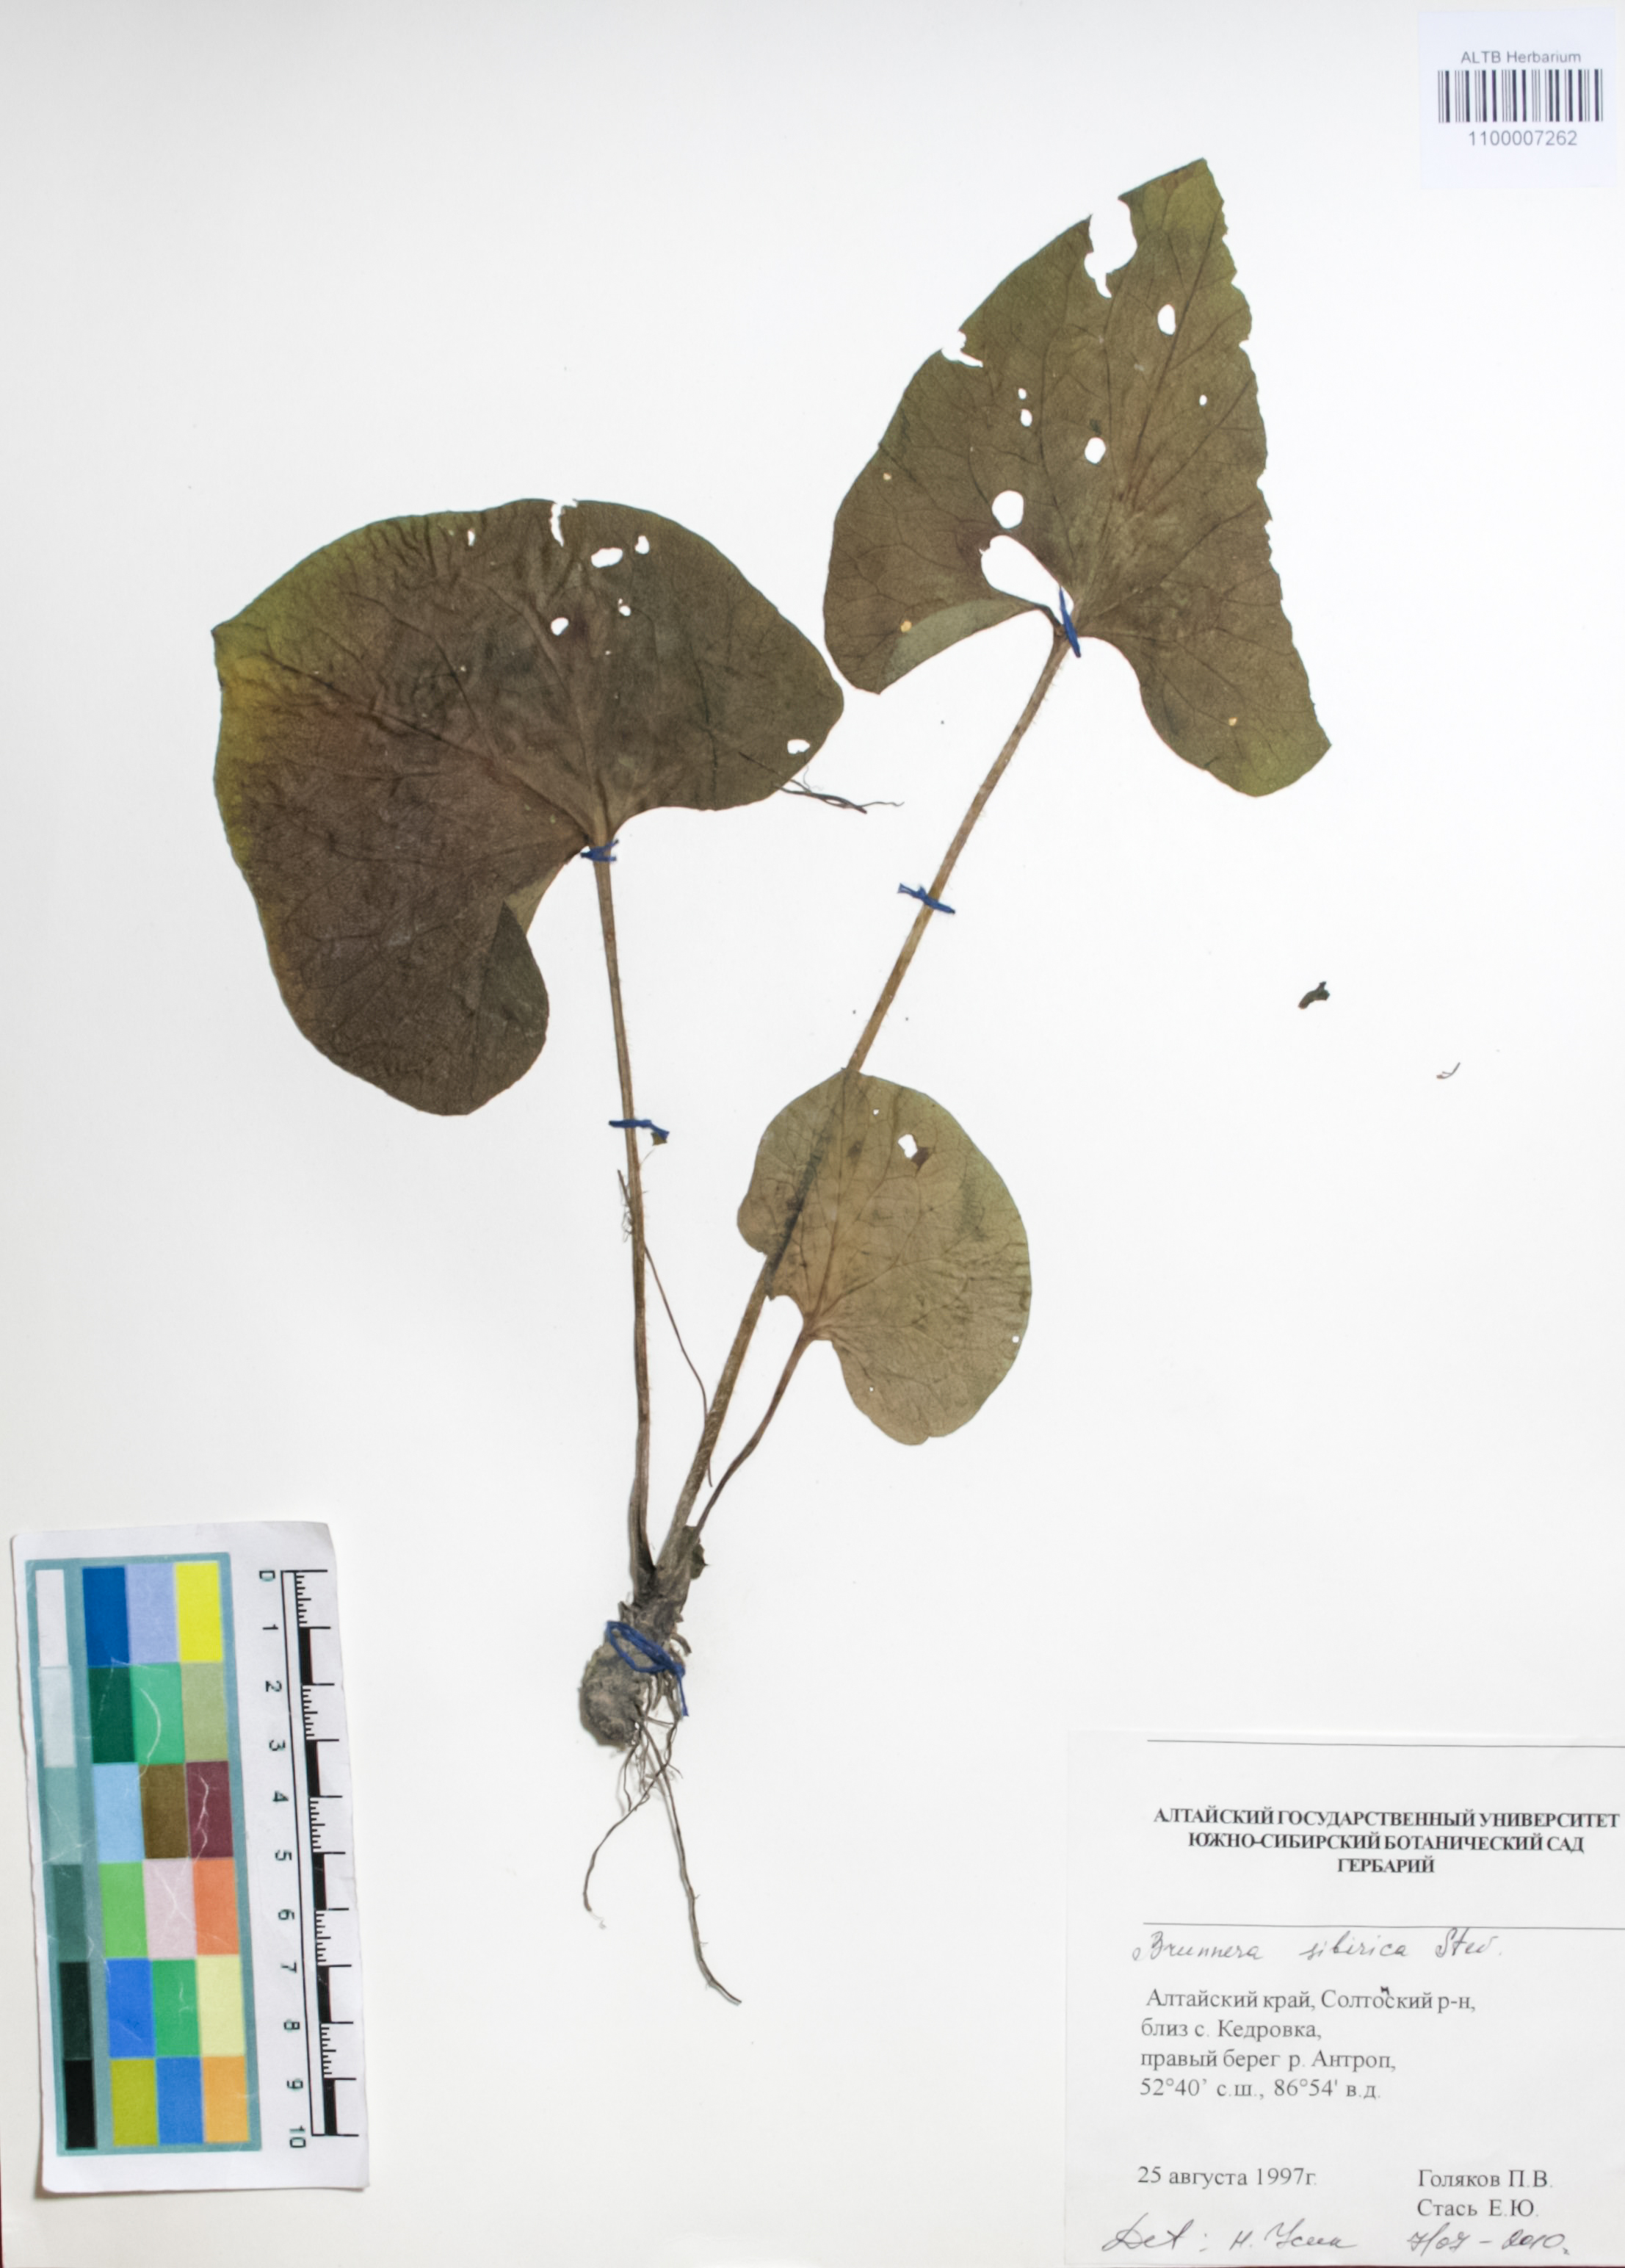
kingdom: Plantae
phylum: Tracheophyta
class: Magnoliopsida
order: Boraginales
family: Boraginaceae
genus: Brunnera
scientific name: Brunnera sibirica
